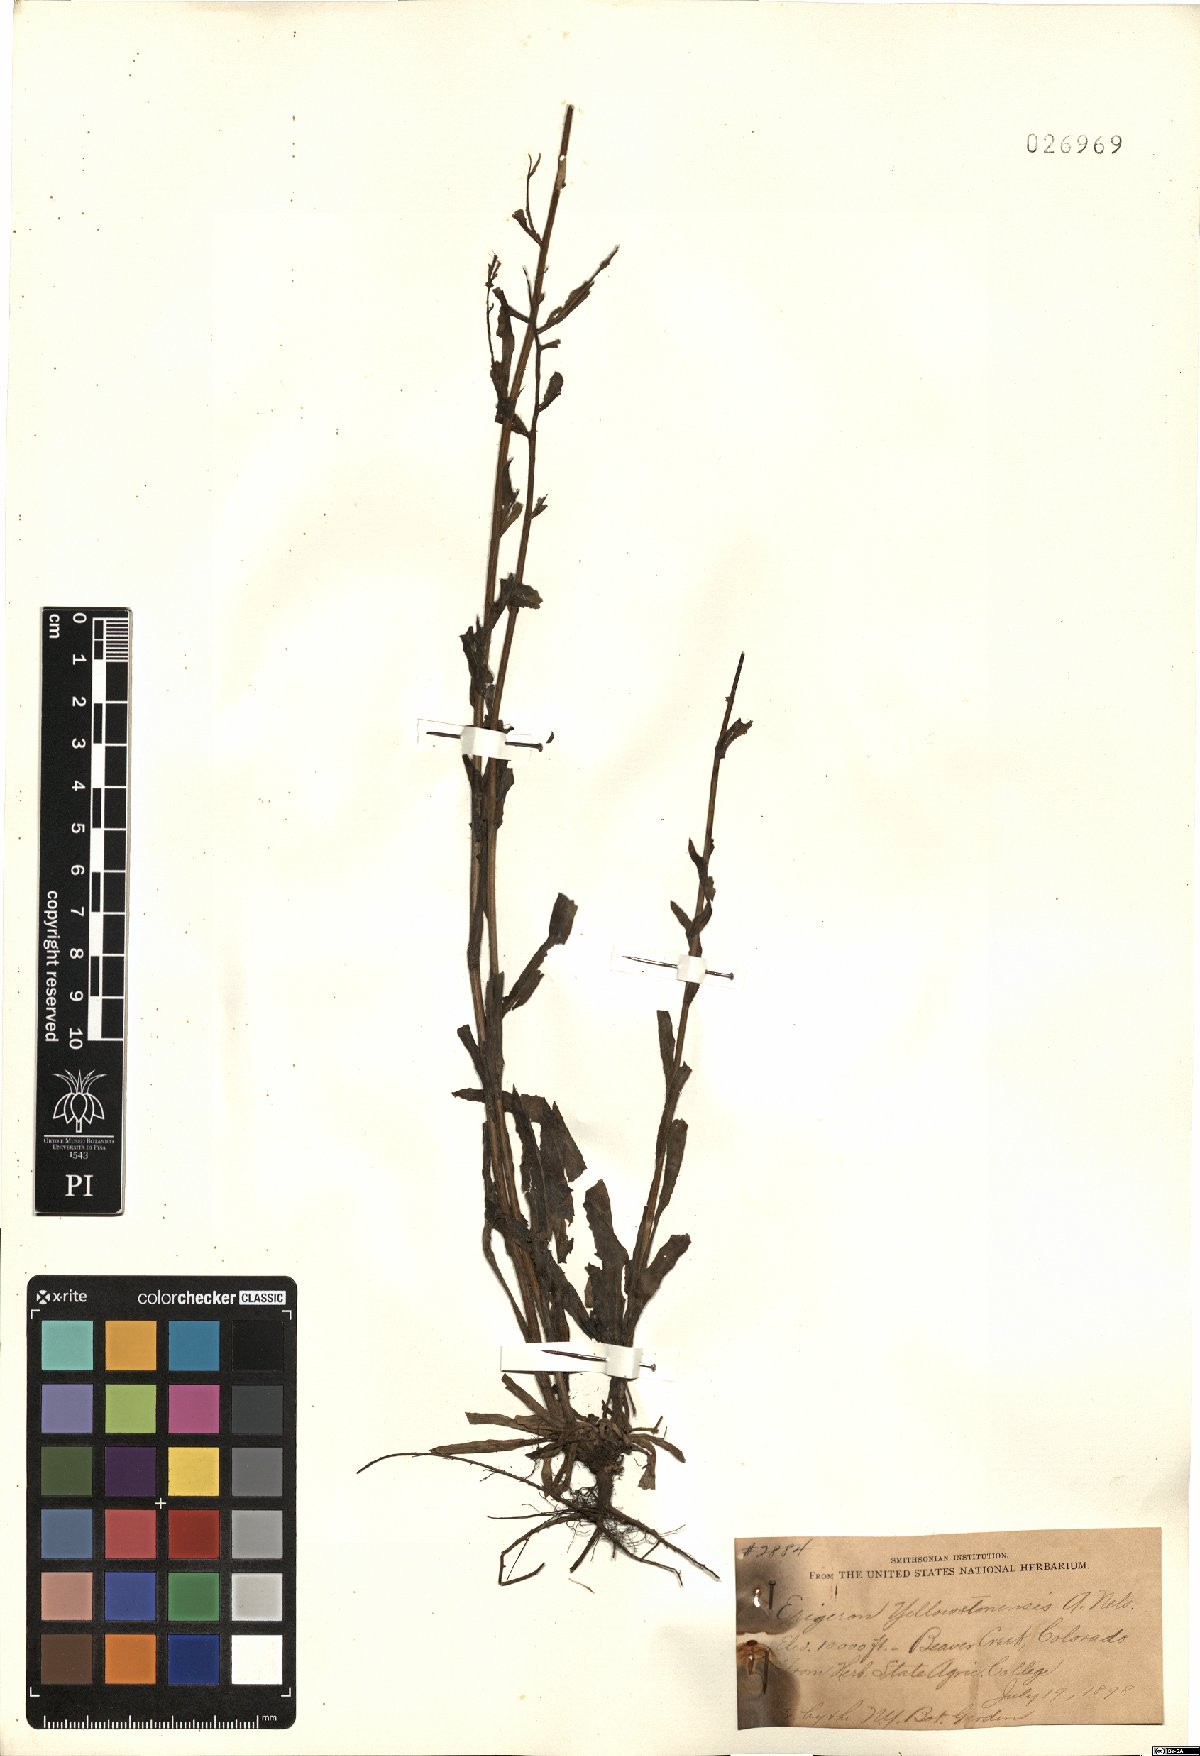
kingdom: Plantae
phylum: Tracheophyta
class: Magnoliopsida
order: Asterales
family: Asteraceae
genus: Erigeron
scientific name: Erigeron kamtschaticus
